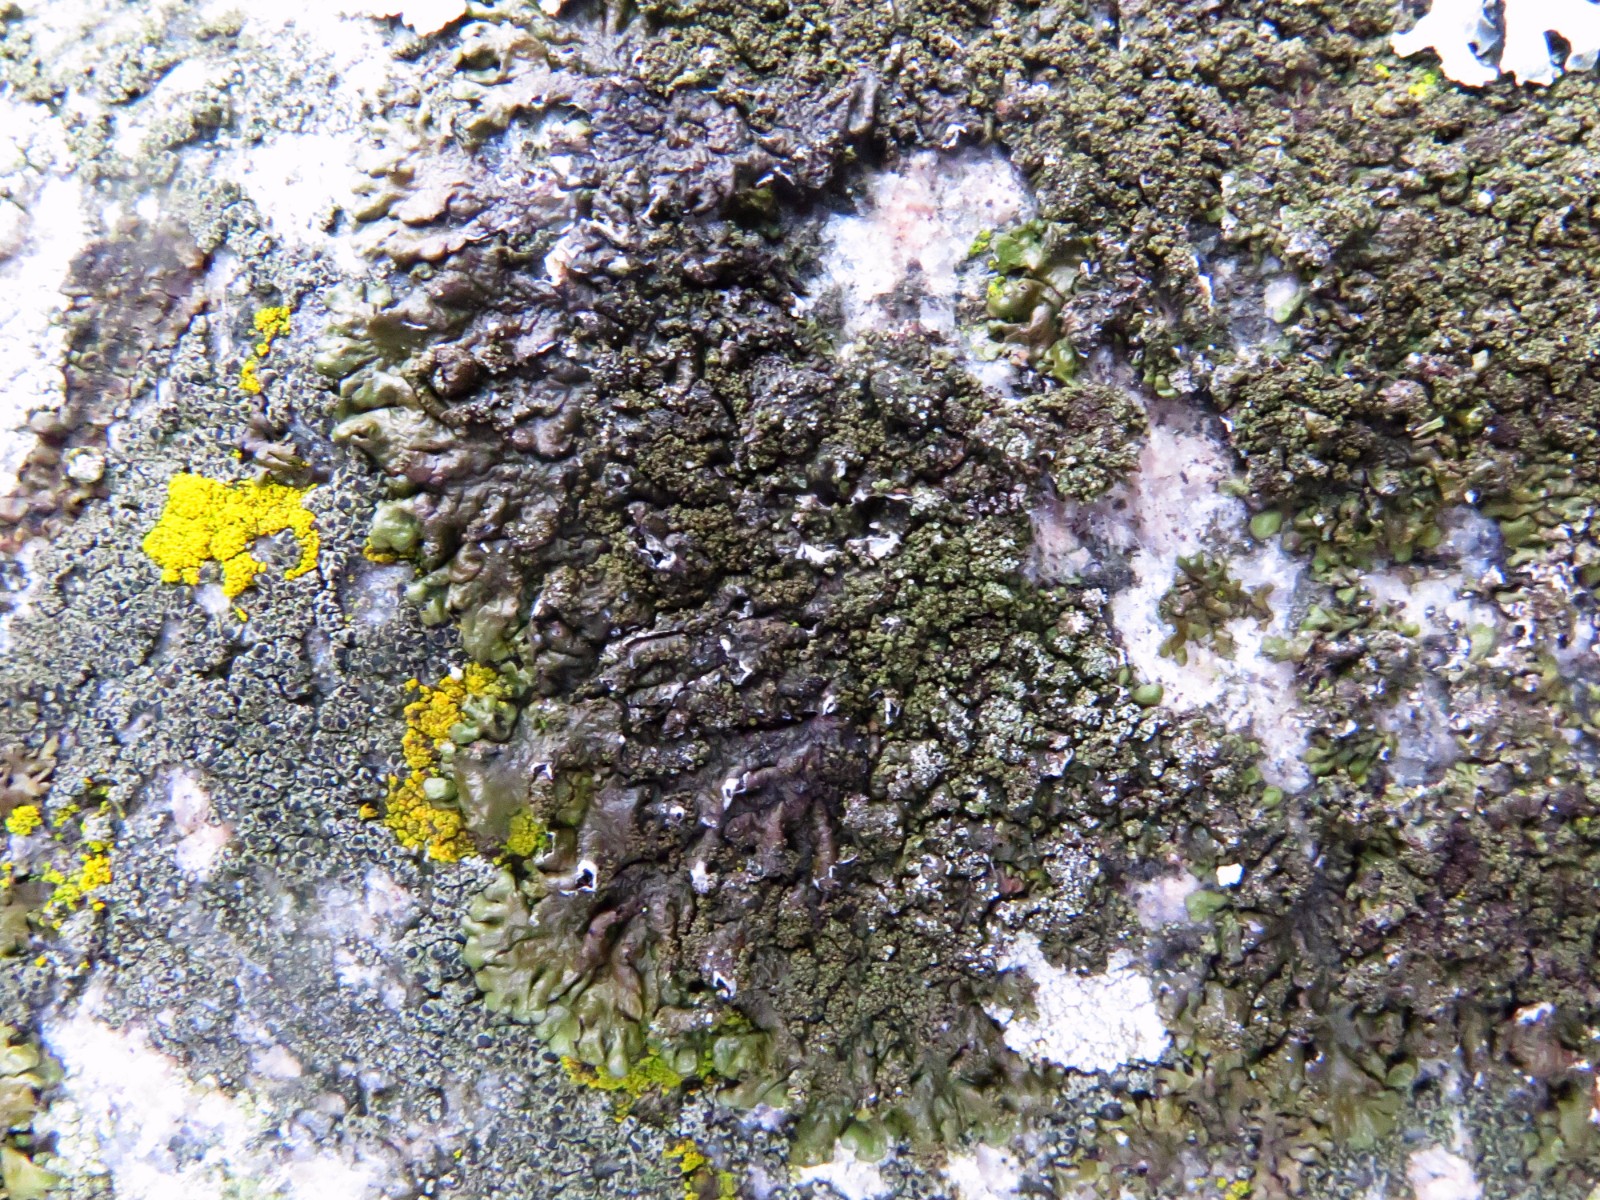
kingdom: Fungi
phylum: Ascomycota
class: Lecanoromycetes
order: Lecanorales
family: Parmeliaceae
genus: Xanthoparmelia
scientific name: Xanthoparmelia loxodes
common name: knudret skållav
